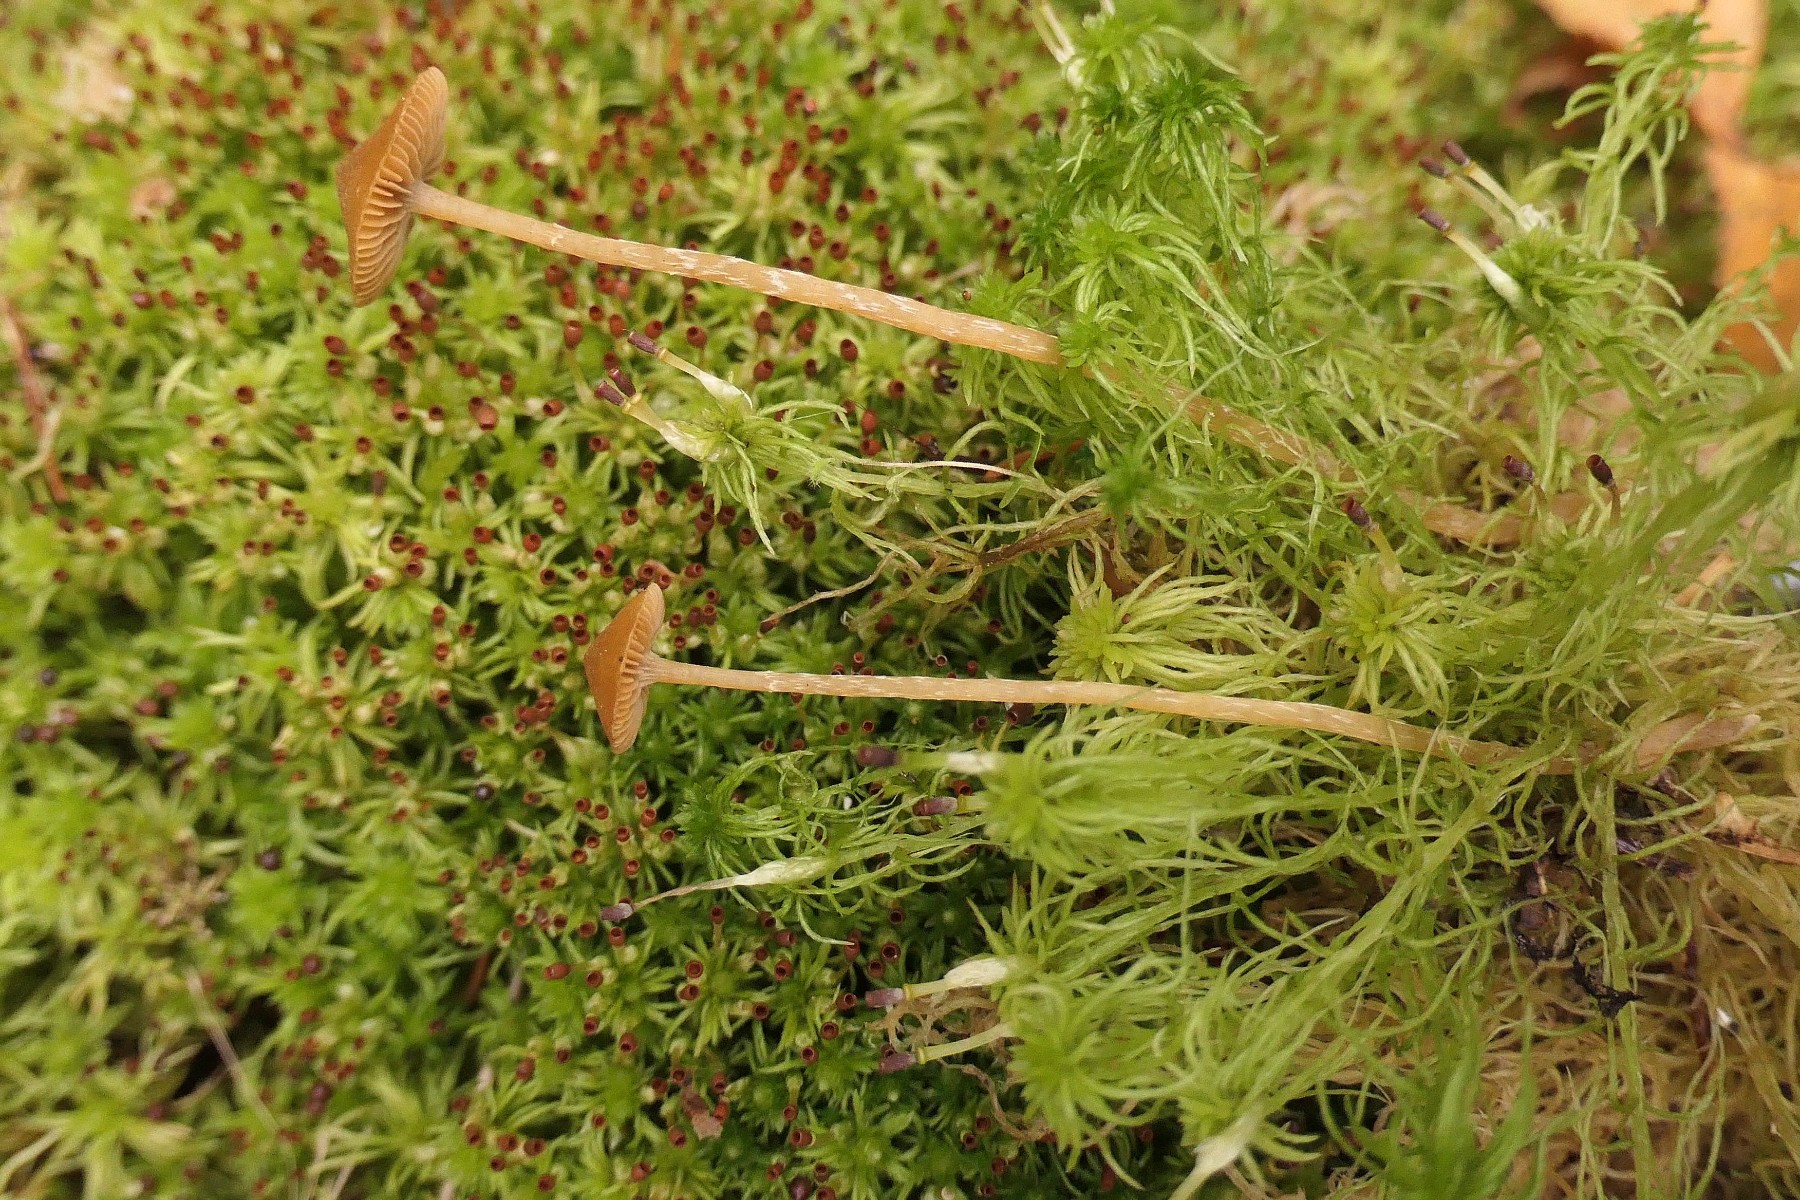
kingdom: Fungi
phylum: Basidiomycota
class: Agaricomycetes
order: Agaricales
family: Hymenogastraceae
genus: Galerina
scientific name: Galerina paludosa
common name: mose-hjelmhat
